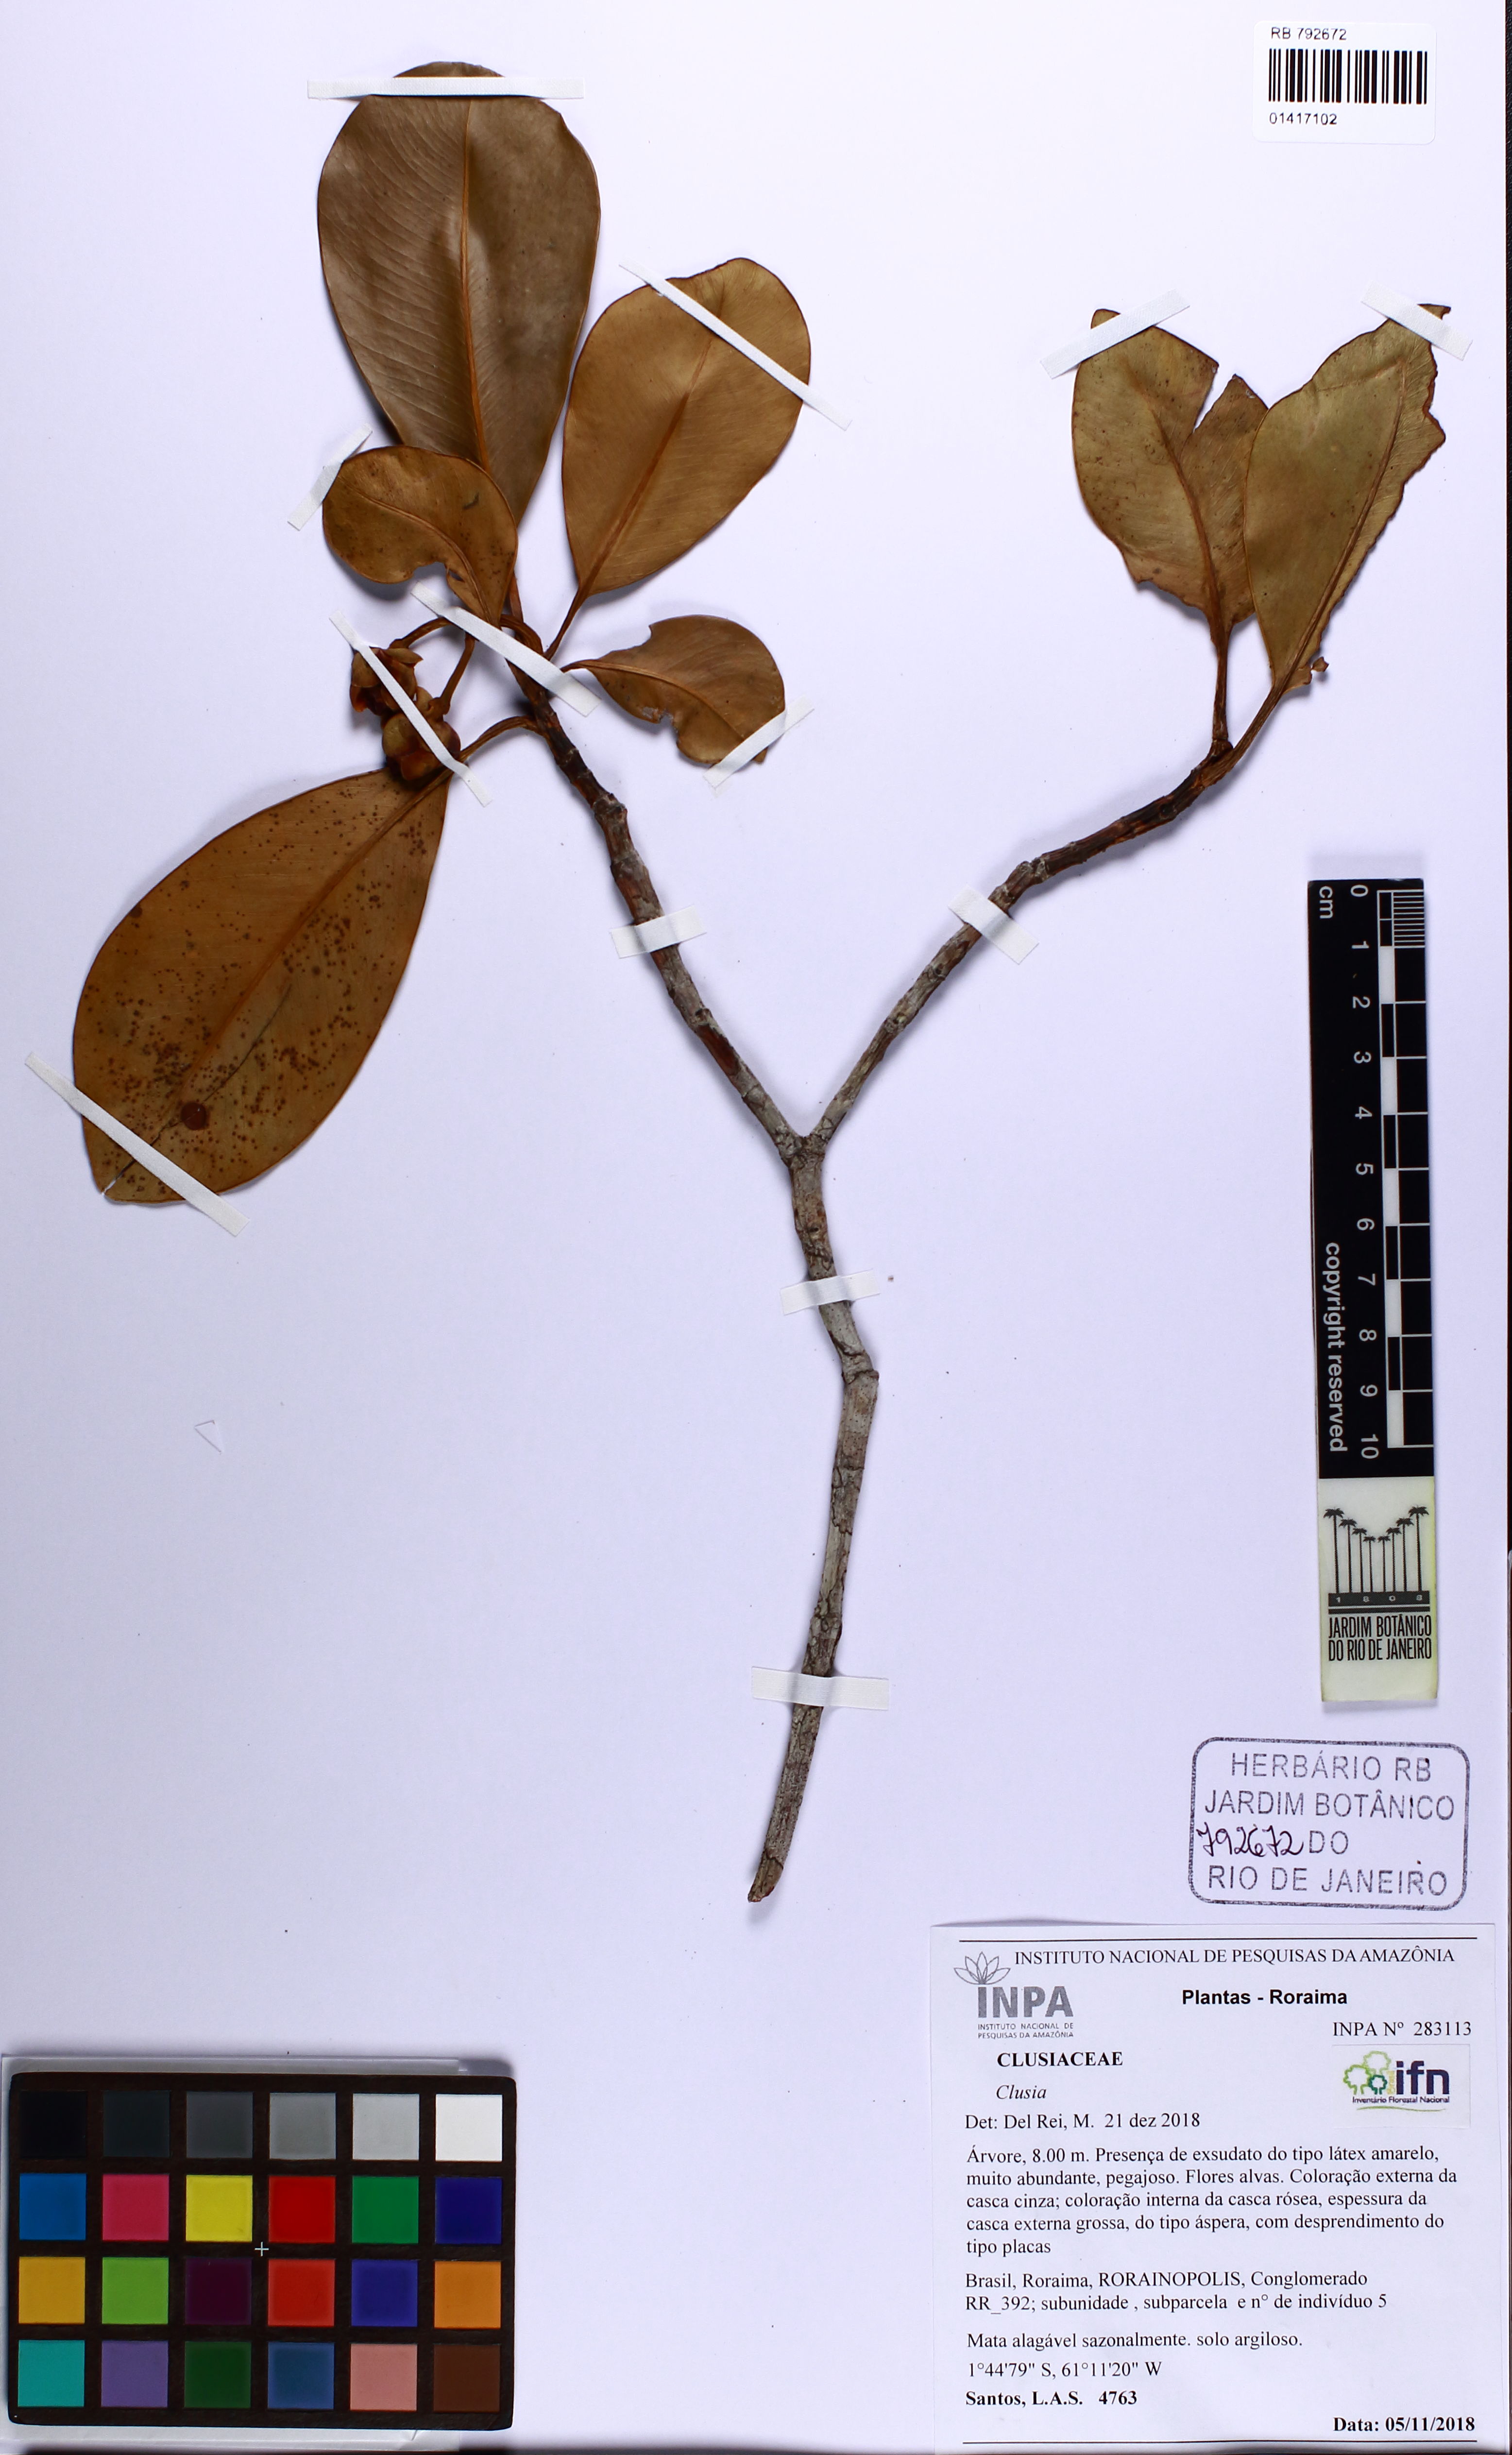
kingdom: Plantae
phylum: Tracheophyta
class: Magnoliopsida
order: Malpighiales
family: Clusiaceae
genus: Clusia
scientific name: Clusia microstemon
